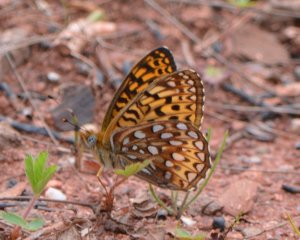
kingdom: Animalia
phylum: Arthropoda
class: Insecta
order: Lepidoptera
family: Nymphalidae
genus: Speyeria
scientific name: Speyeria atlantis
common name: Atlantis Fritillary
